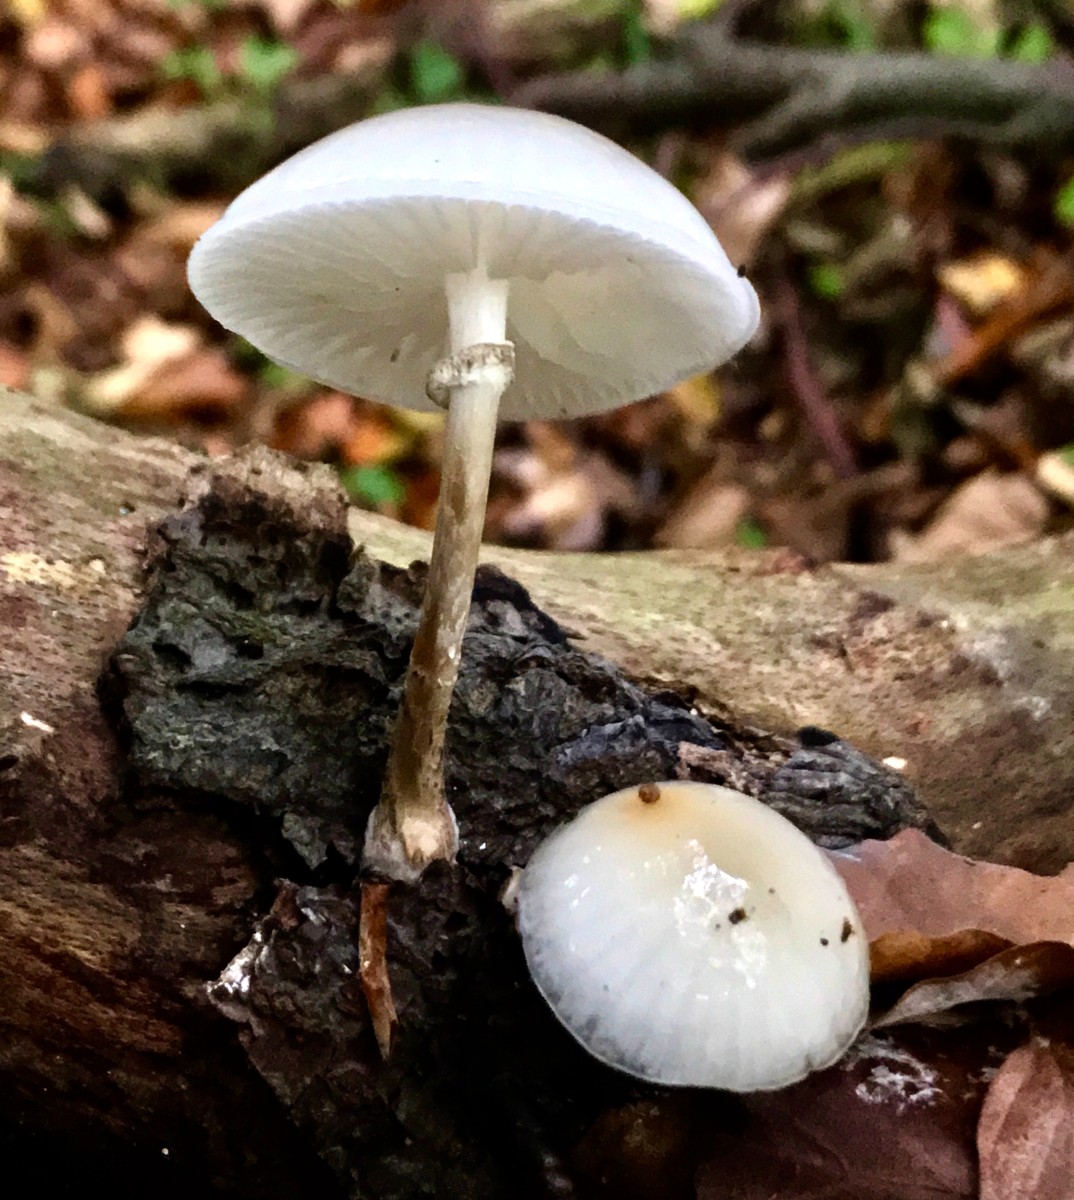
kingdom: Fungi
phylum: Basidiomycota
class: Agaricomycetes
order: Agaricales
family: Physalacriaceae
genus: Mucidula
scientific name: Mucidula mucida
